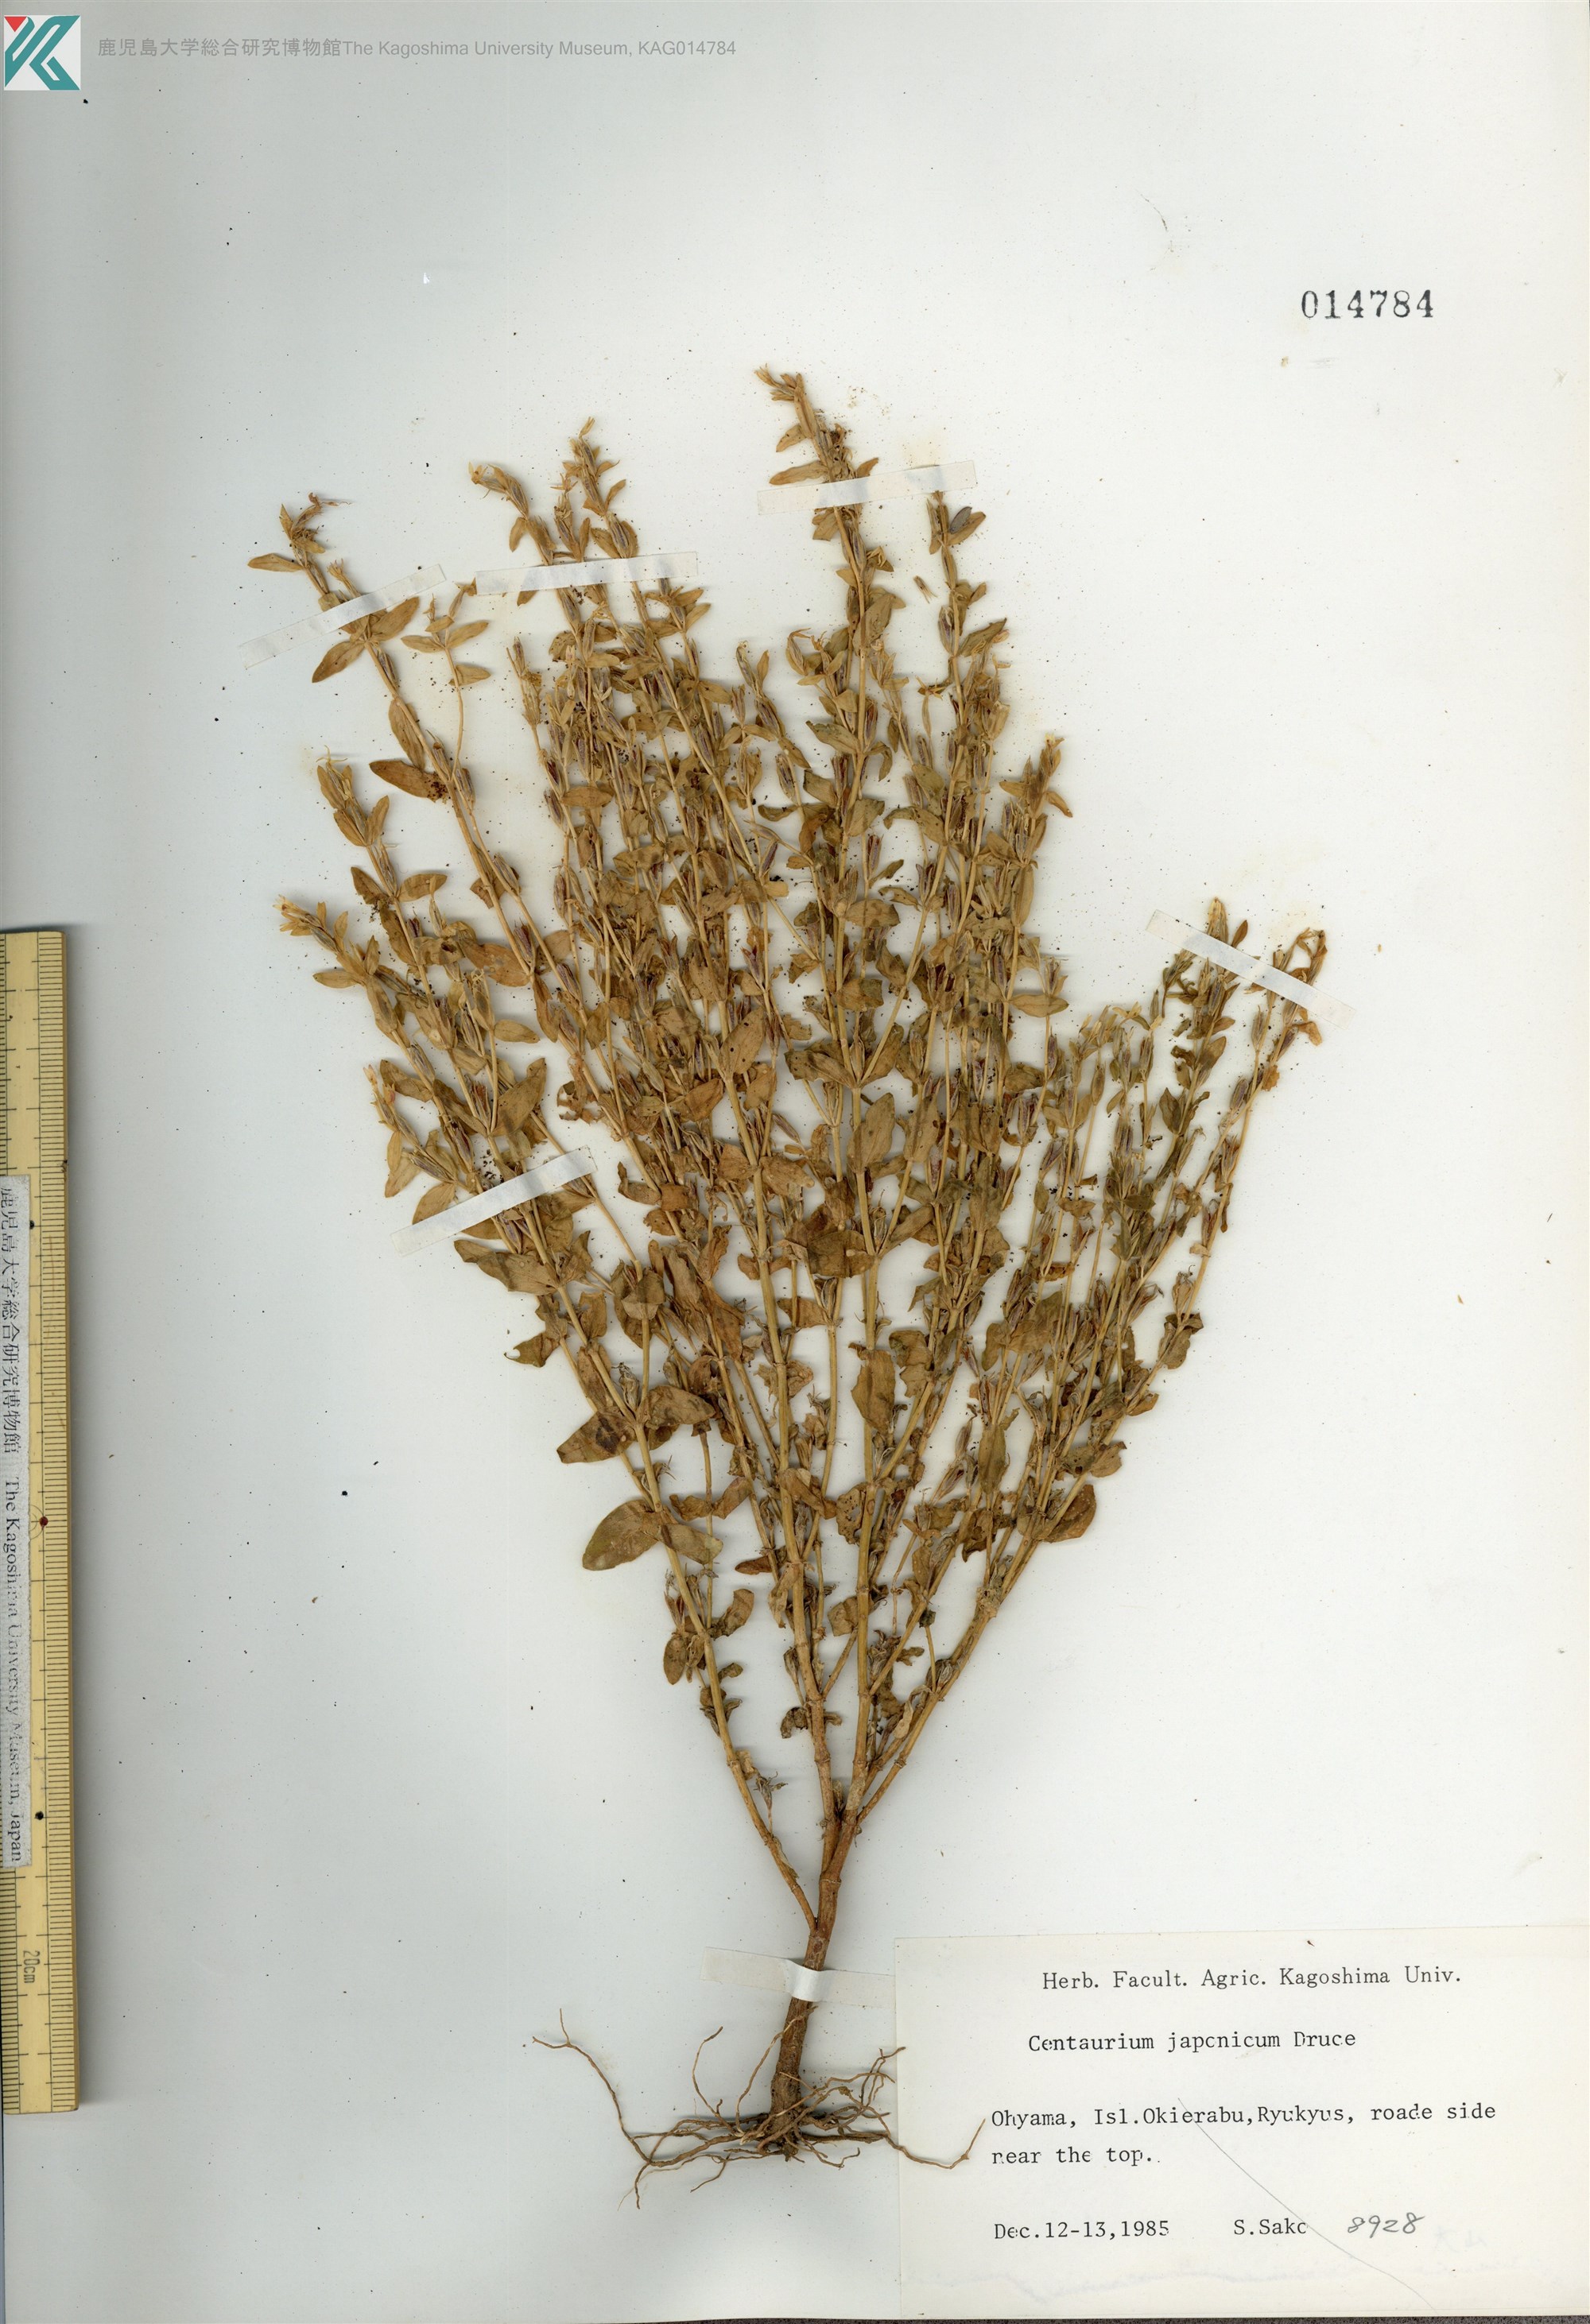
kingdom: Plantae
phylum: Tracheophyta
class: Magnoliopsida
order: Gentianales
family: Gentianaceae
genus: Schenkia
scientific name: Schenkia japonica
